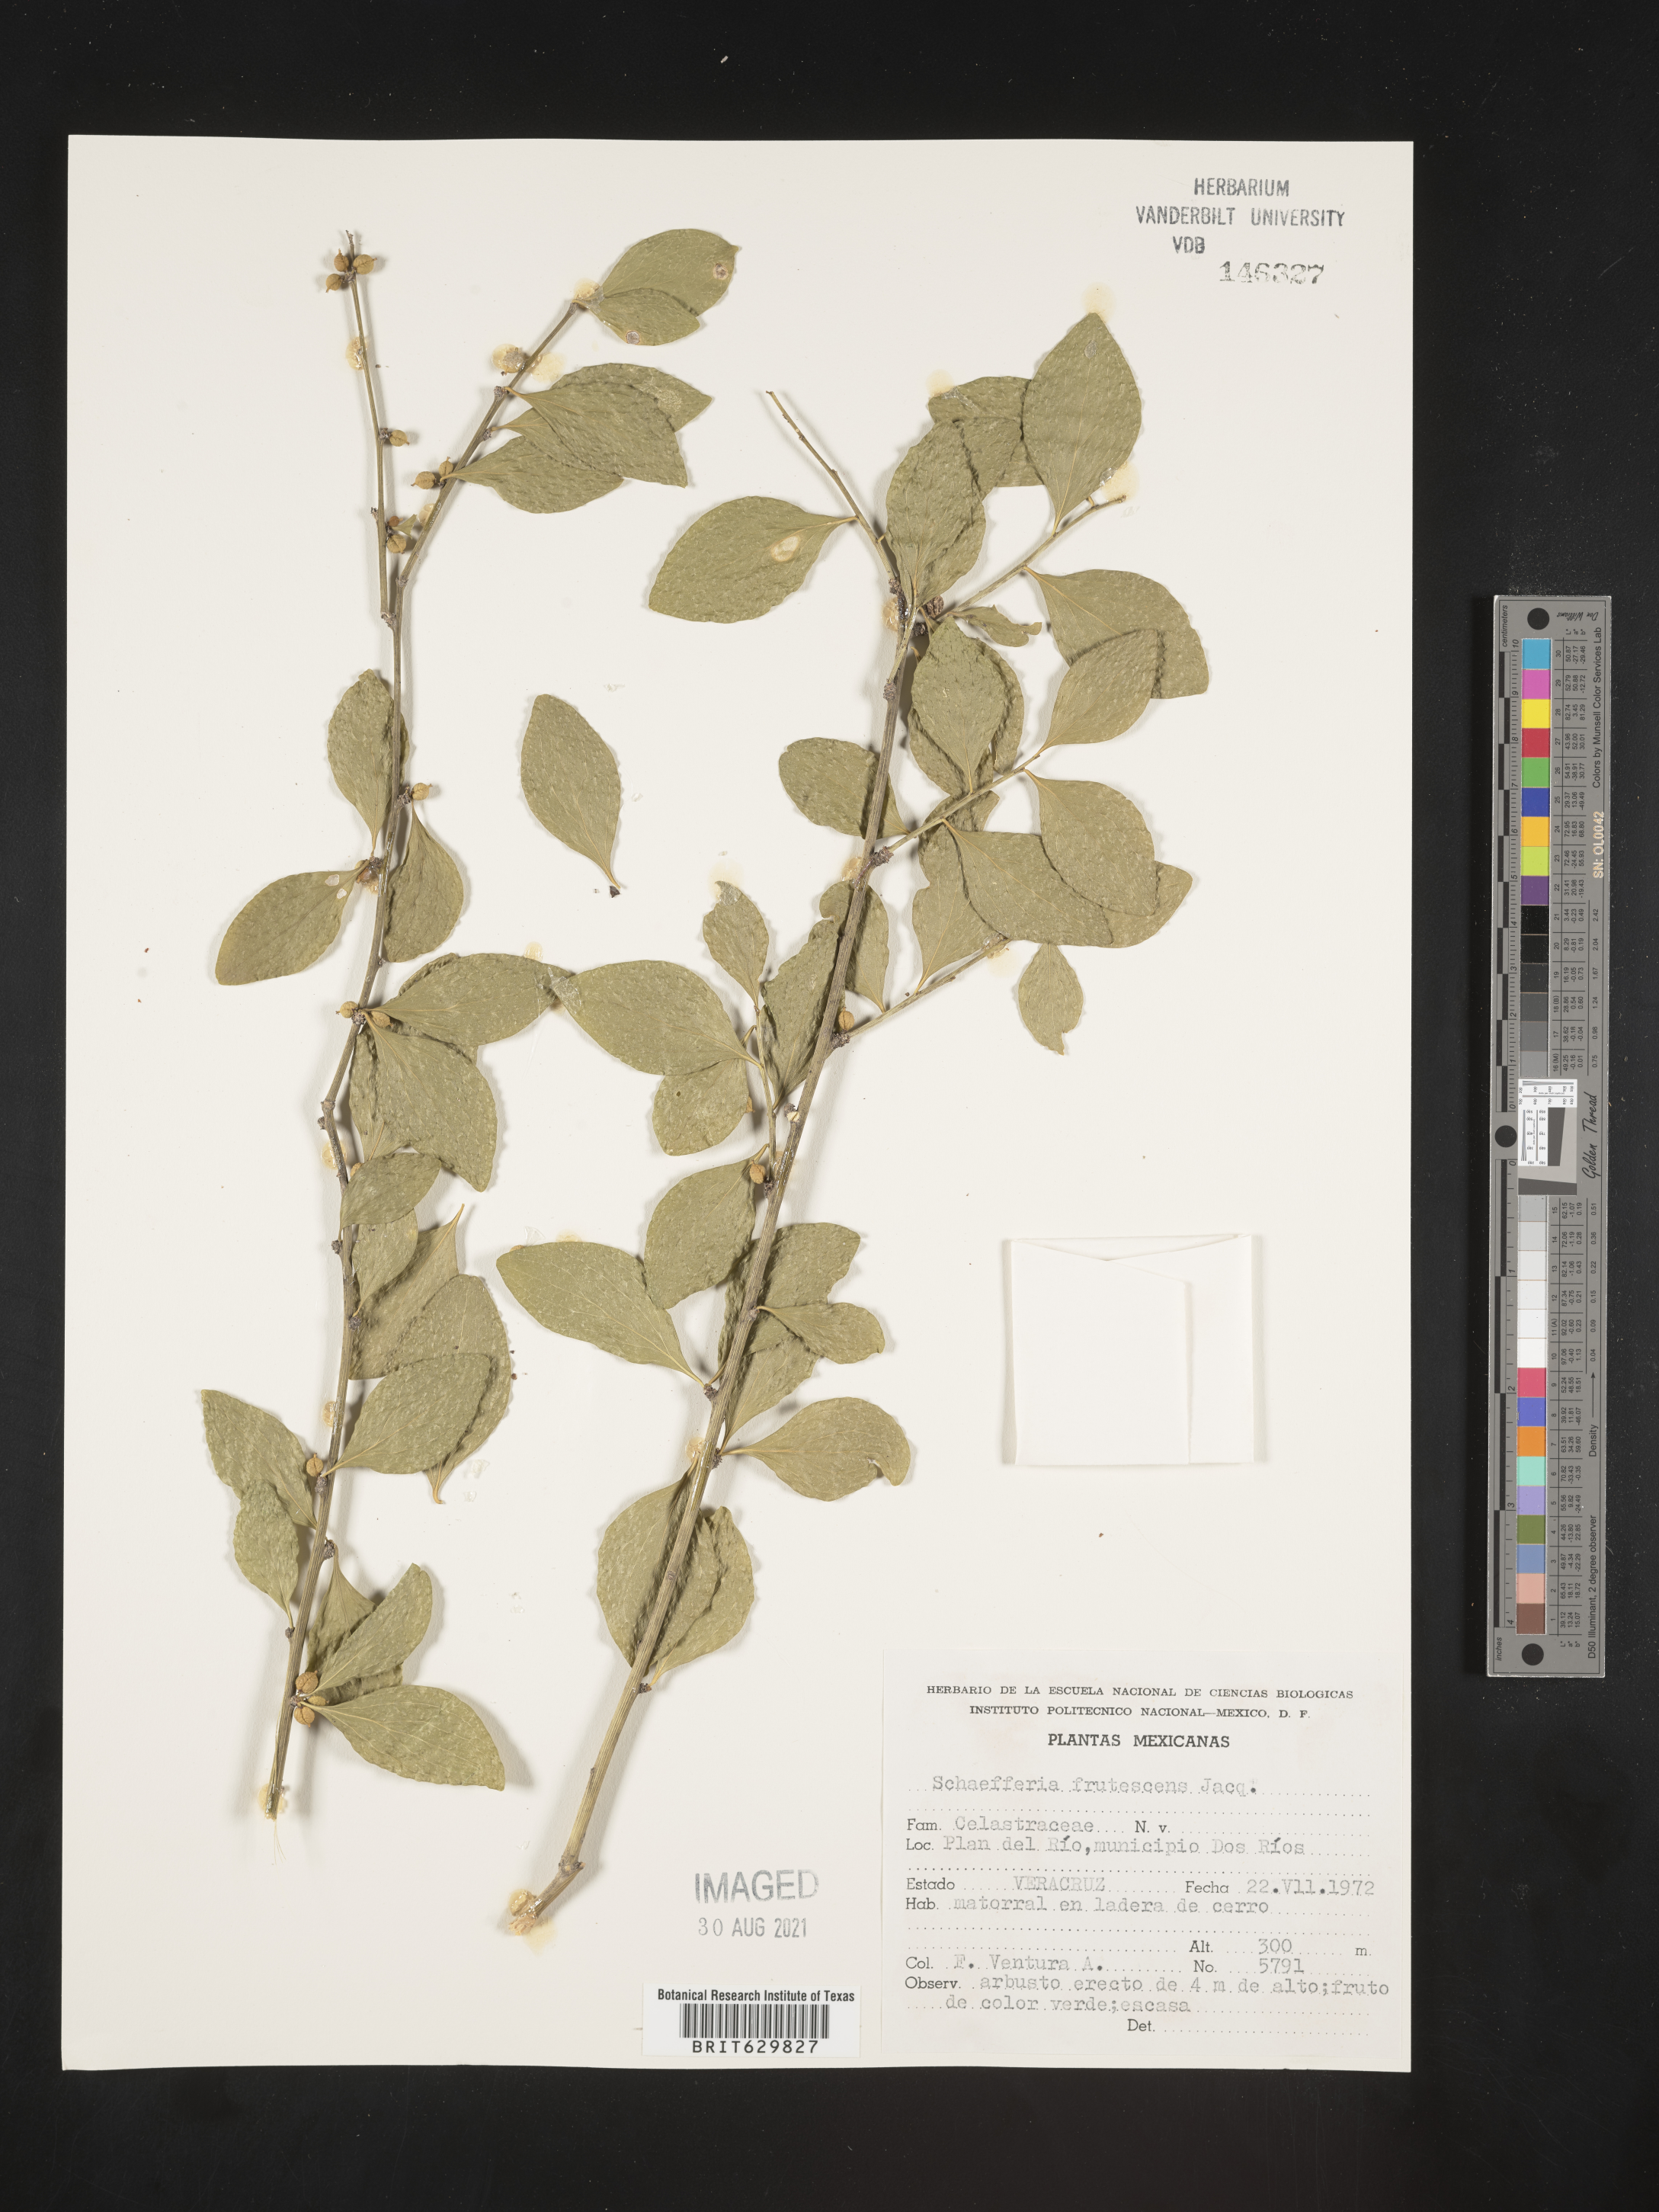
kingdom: Plantae
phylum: Tracheophyta
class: Magnoliopsida
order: Celastrales
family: Celastraceae
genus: Schaefferia
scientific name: Schaefferia
